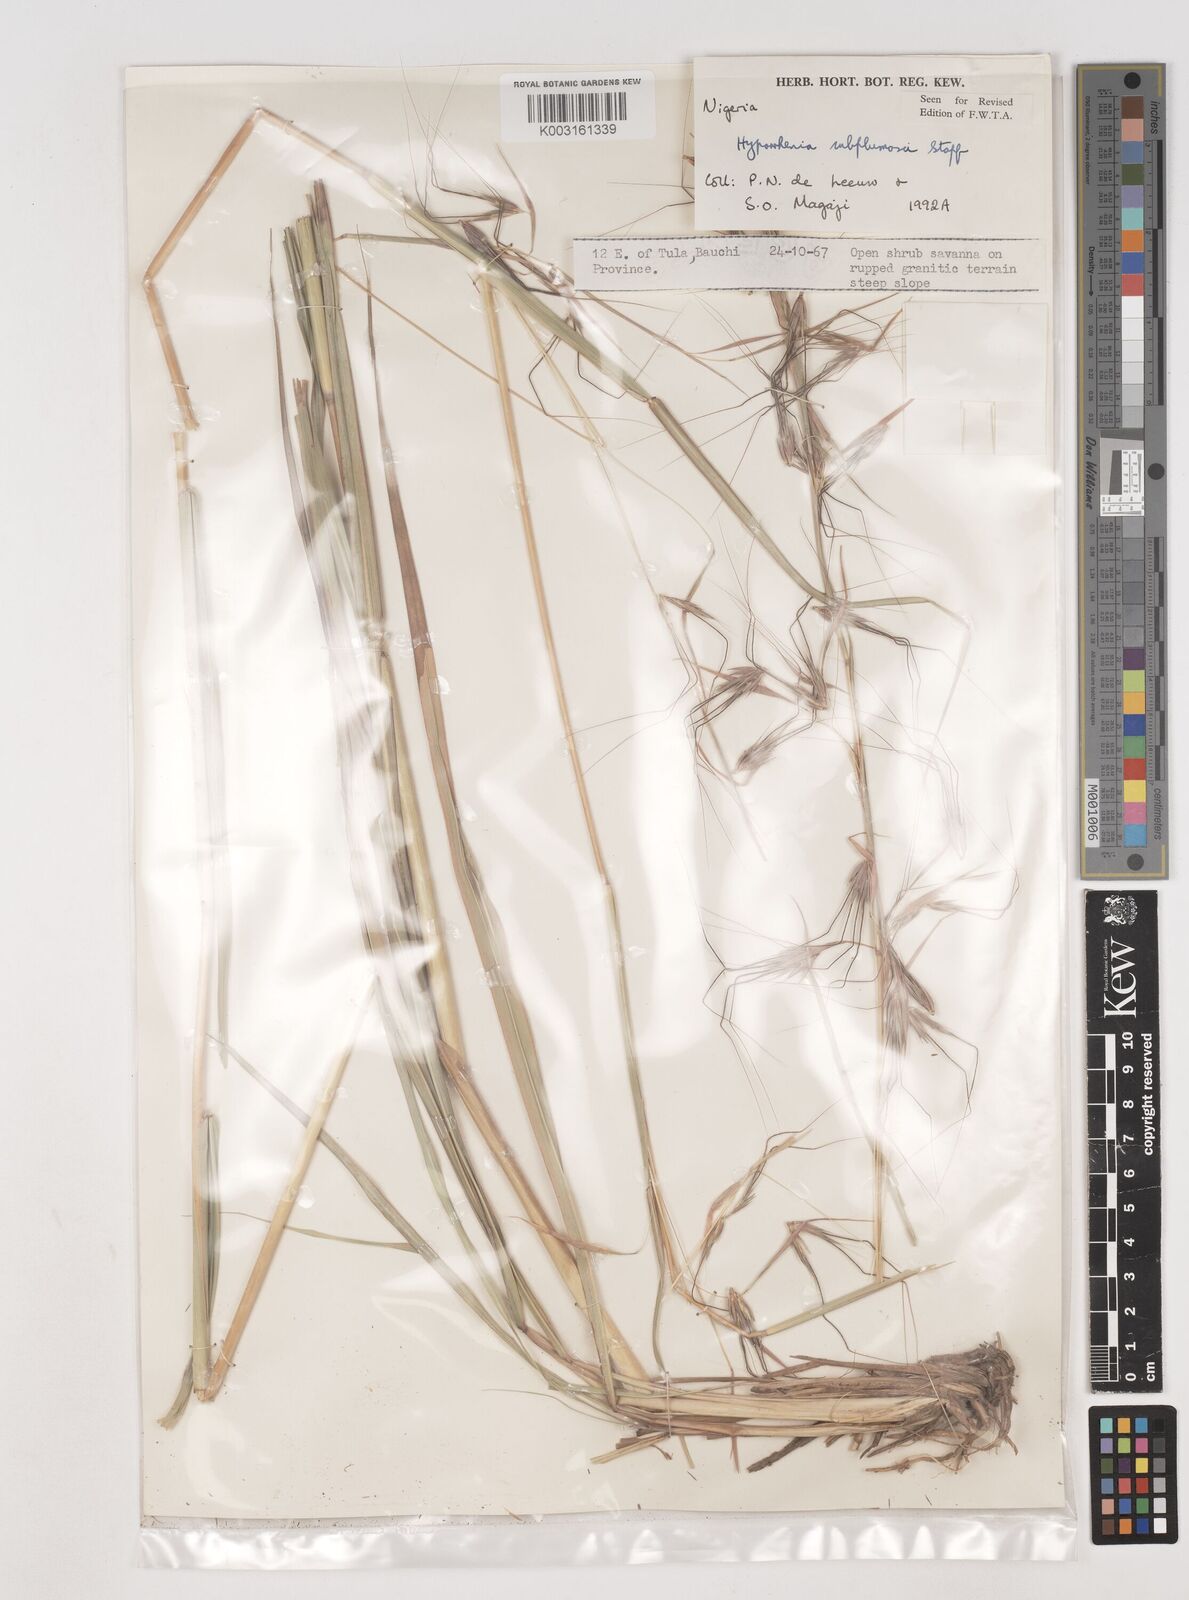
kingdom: Plantae
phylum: Tracheophyta
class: Liliopsida
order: Poales
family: Poaceae
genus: Hyparrhenia
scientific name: Hyparrhenia subplumosa
